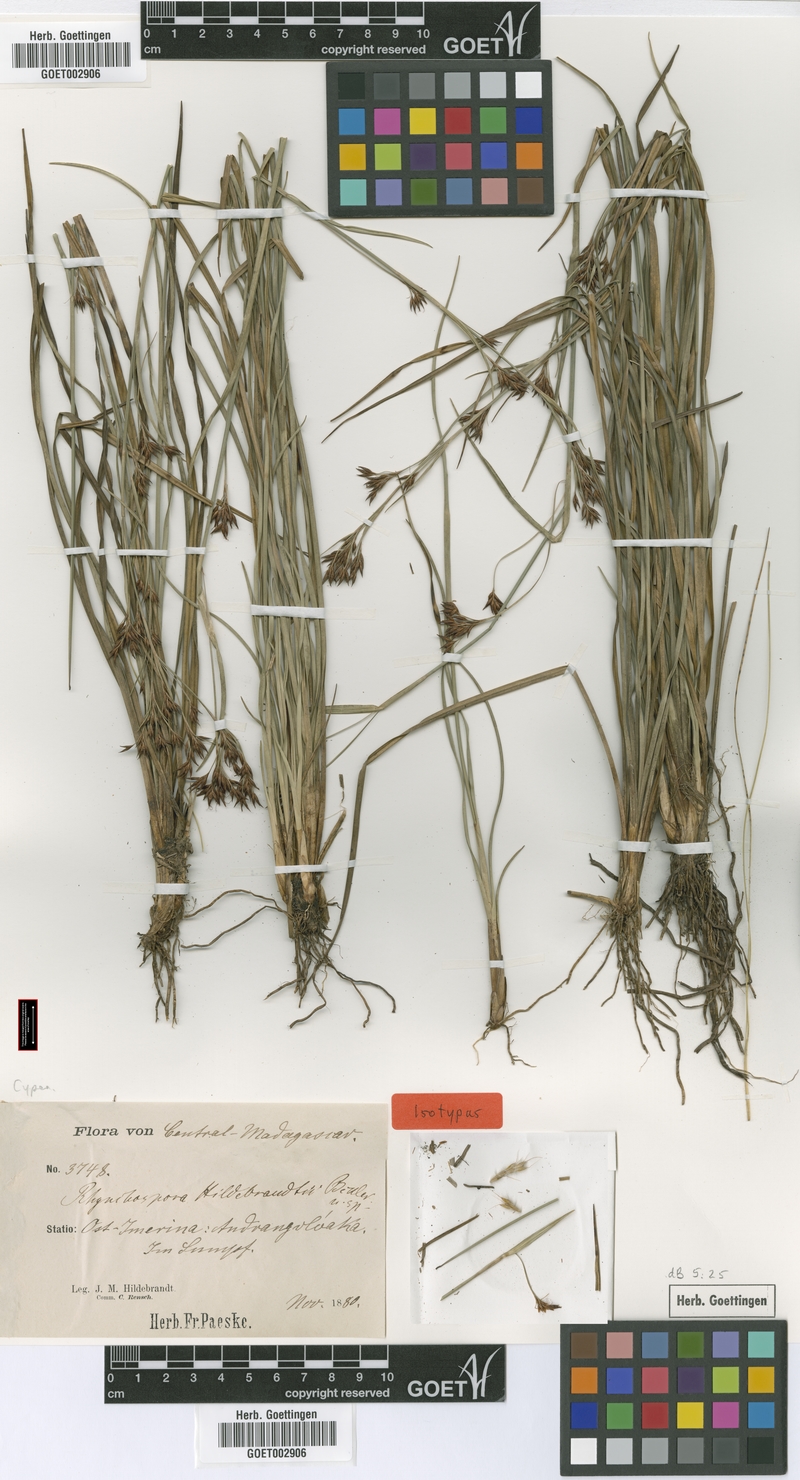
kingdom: Plantae
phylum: Tracheophyta
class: Liliopsida
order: Poales
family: Cyperaceae
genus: Rhynchospora
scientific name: Rhynchospora hildebrandtii
